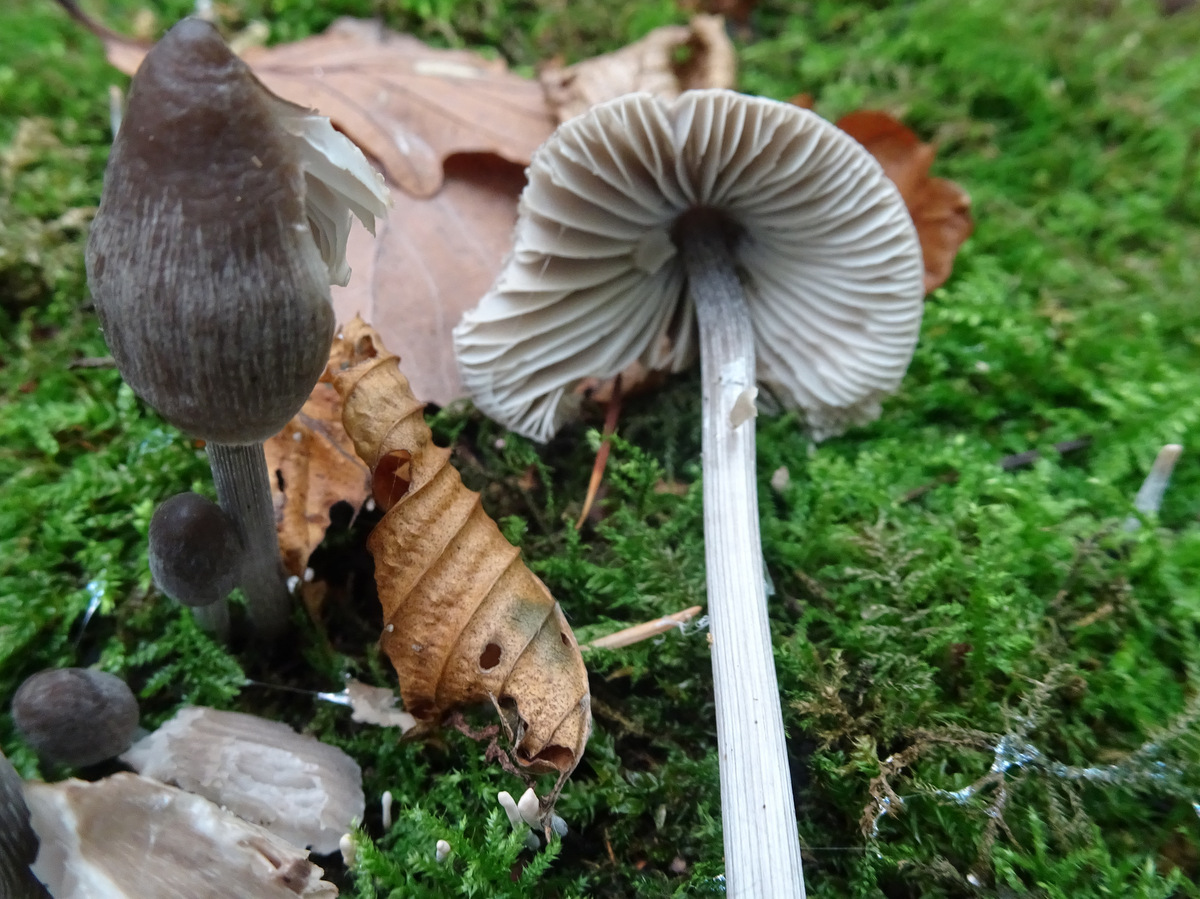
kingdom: Fungi
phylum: Basidiomycota
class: Agaricomycetes
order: Agaricales
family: Mycenaceae
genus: Mycena
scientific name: Mycena polygramma
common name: mangestribet huesvamp
